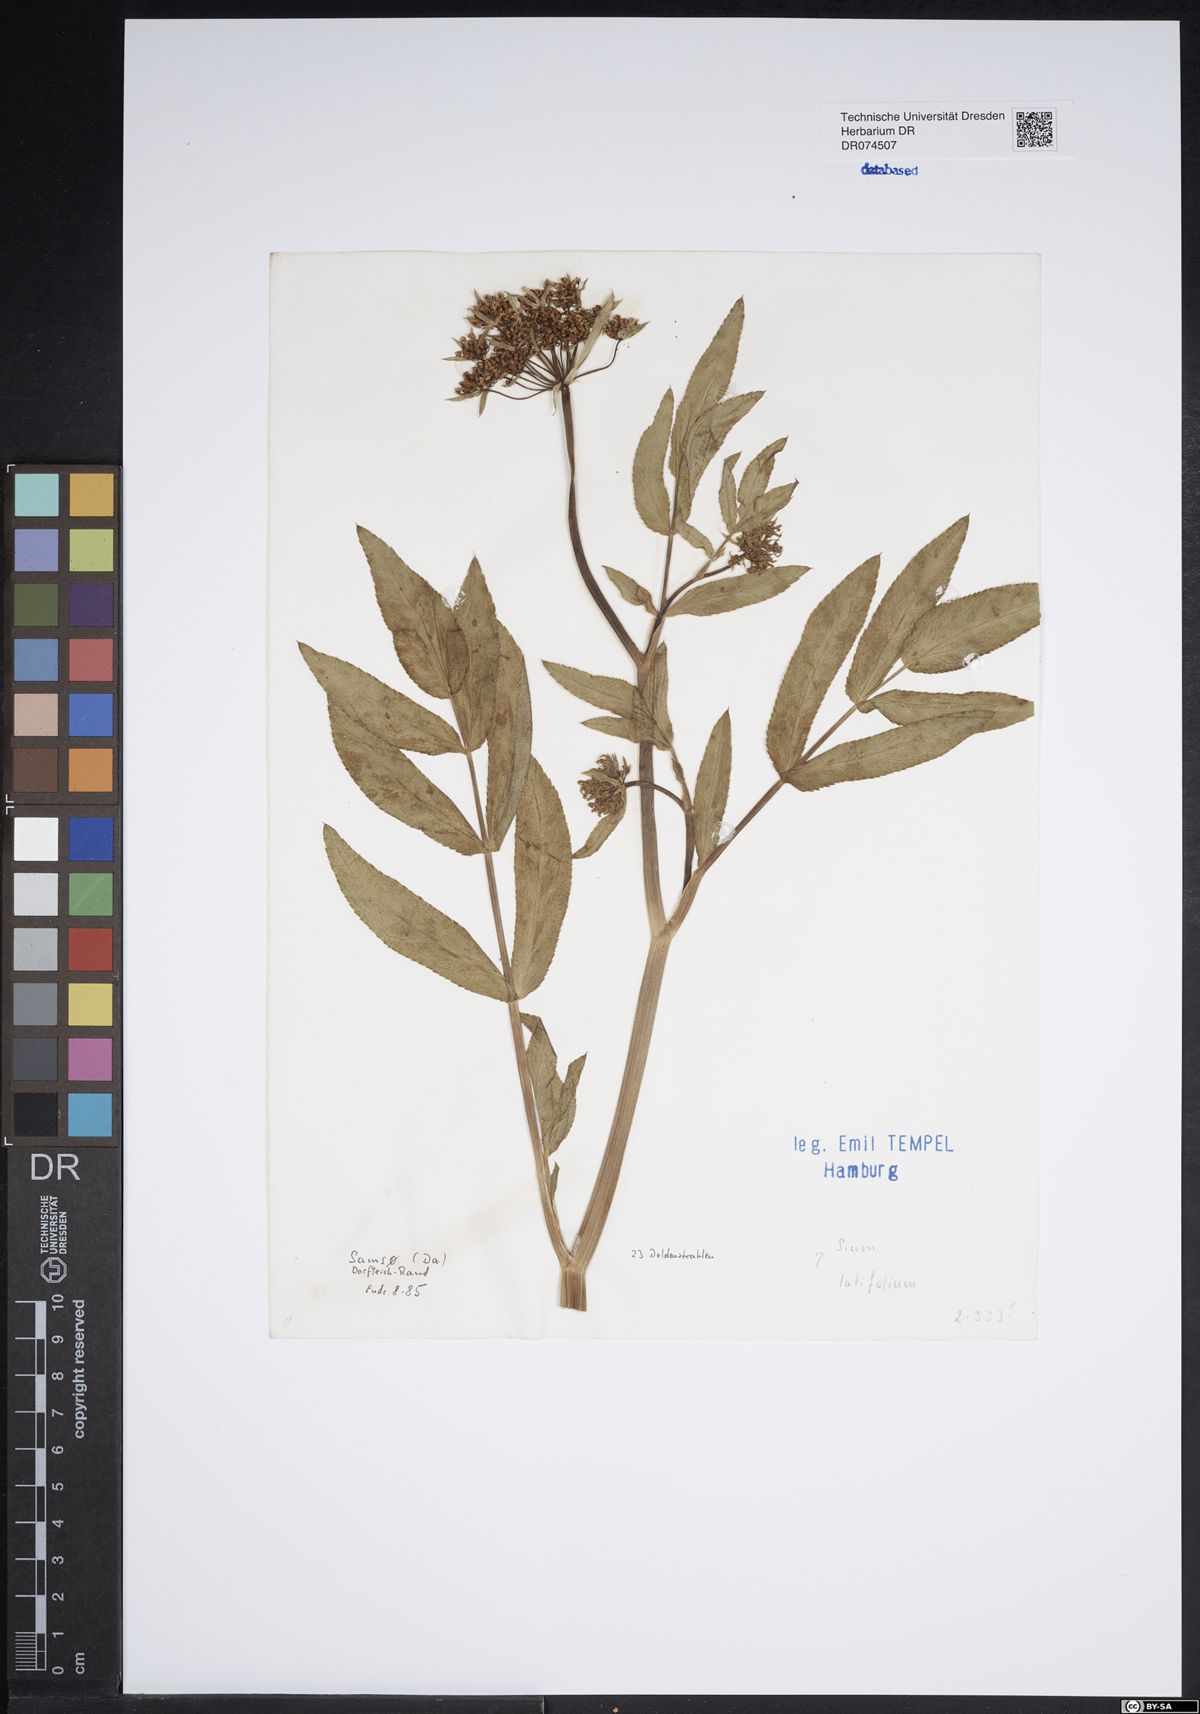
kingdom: Plantae
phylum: Tracheophyta
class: Magnoliopsida
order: Apiales
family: Apiaceae
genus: Sium
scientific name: Sium latifolium
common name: Greater water-parsnip
